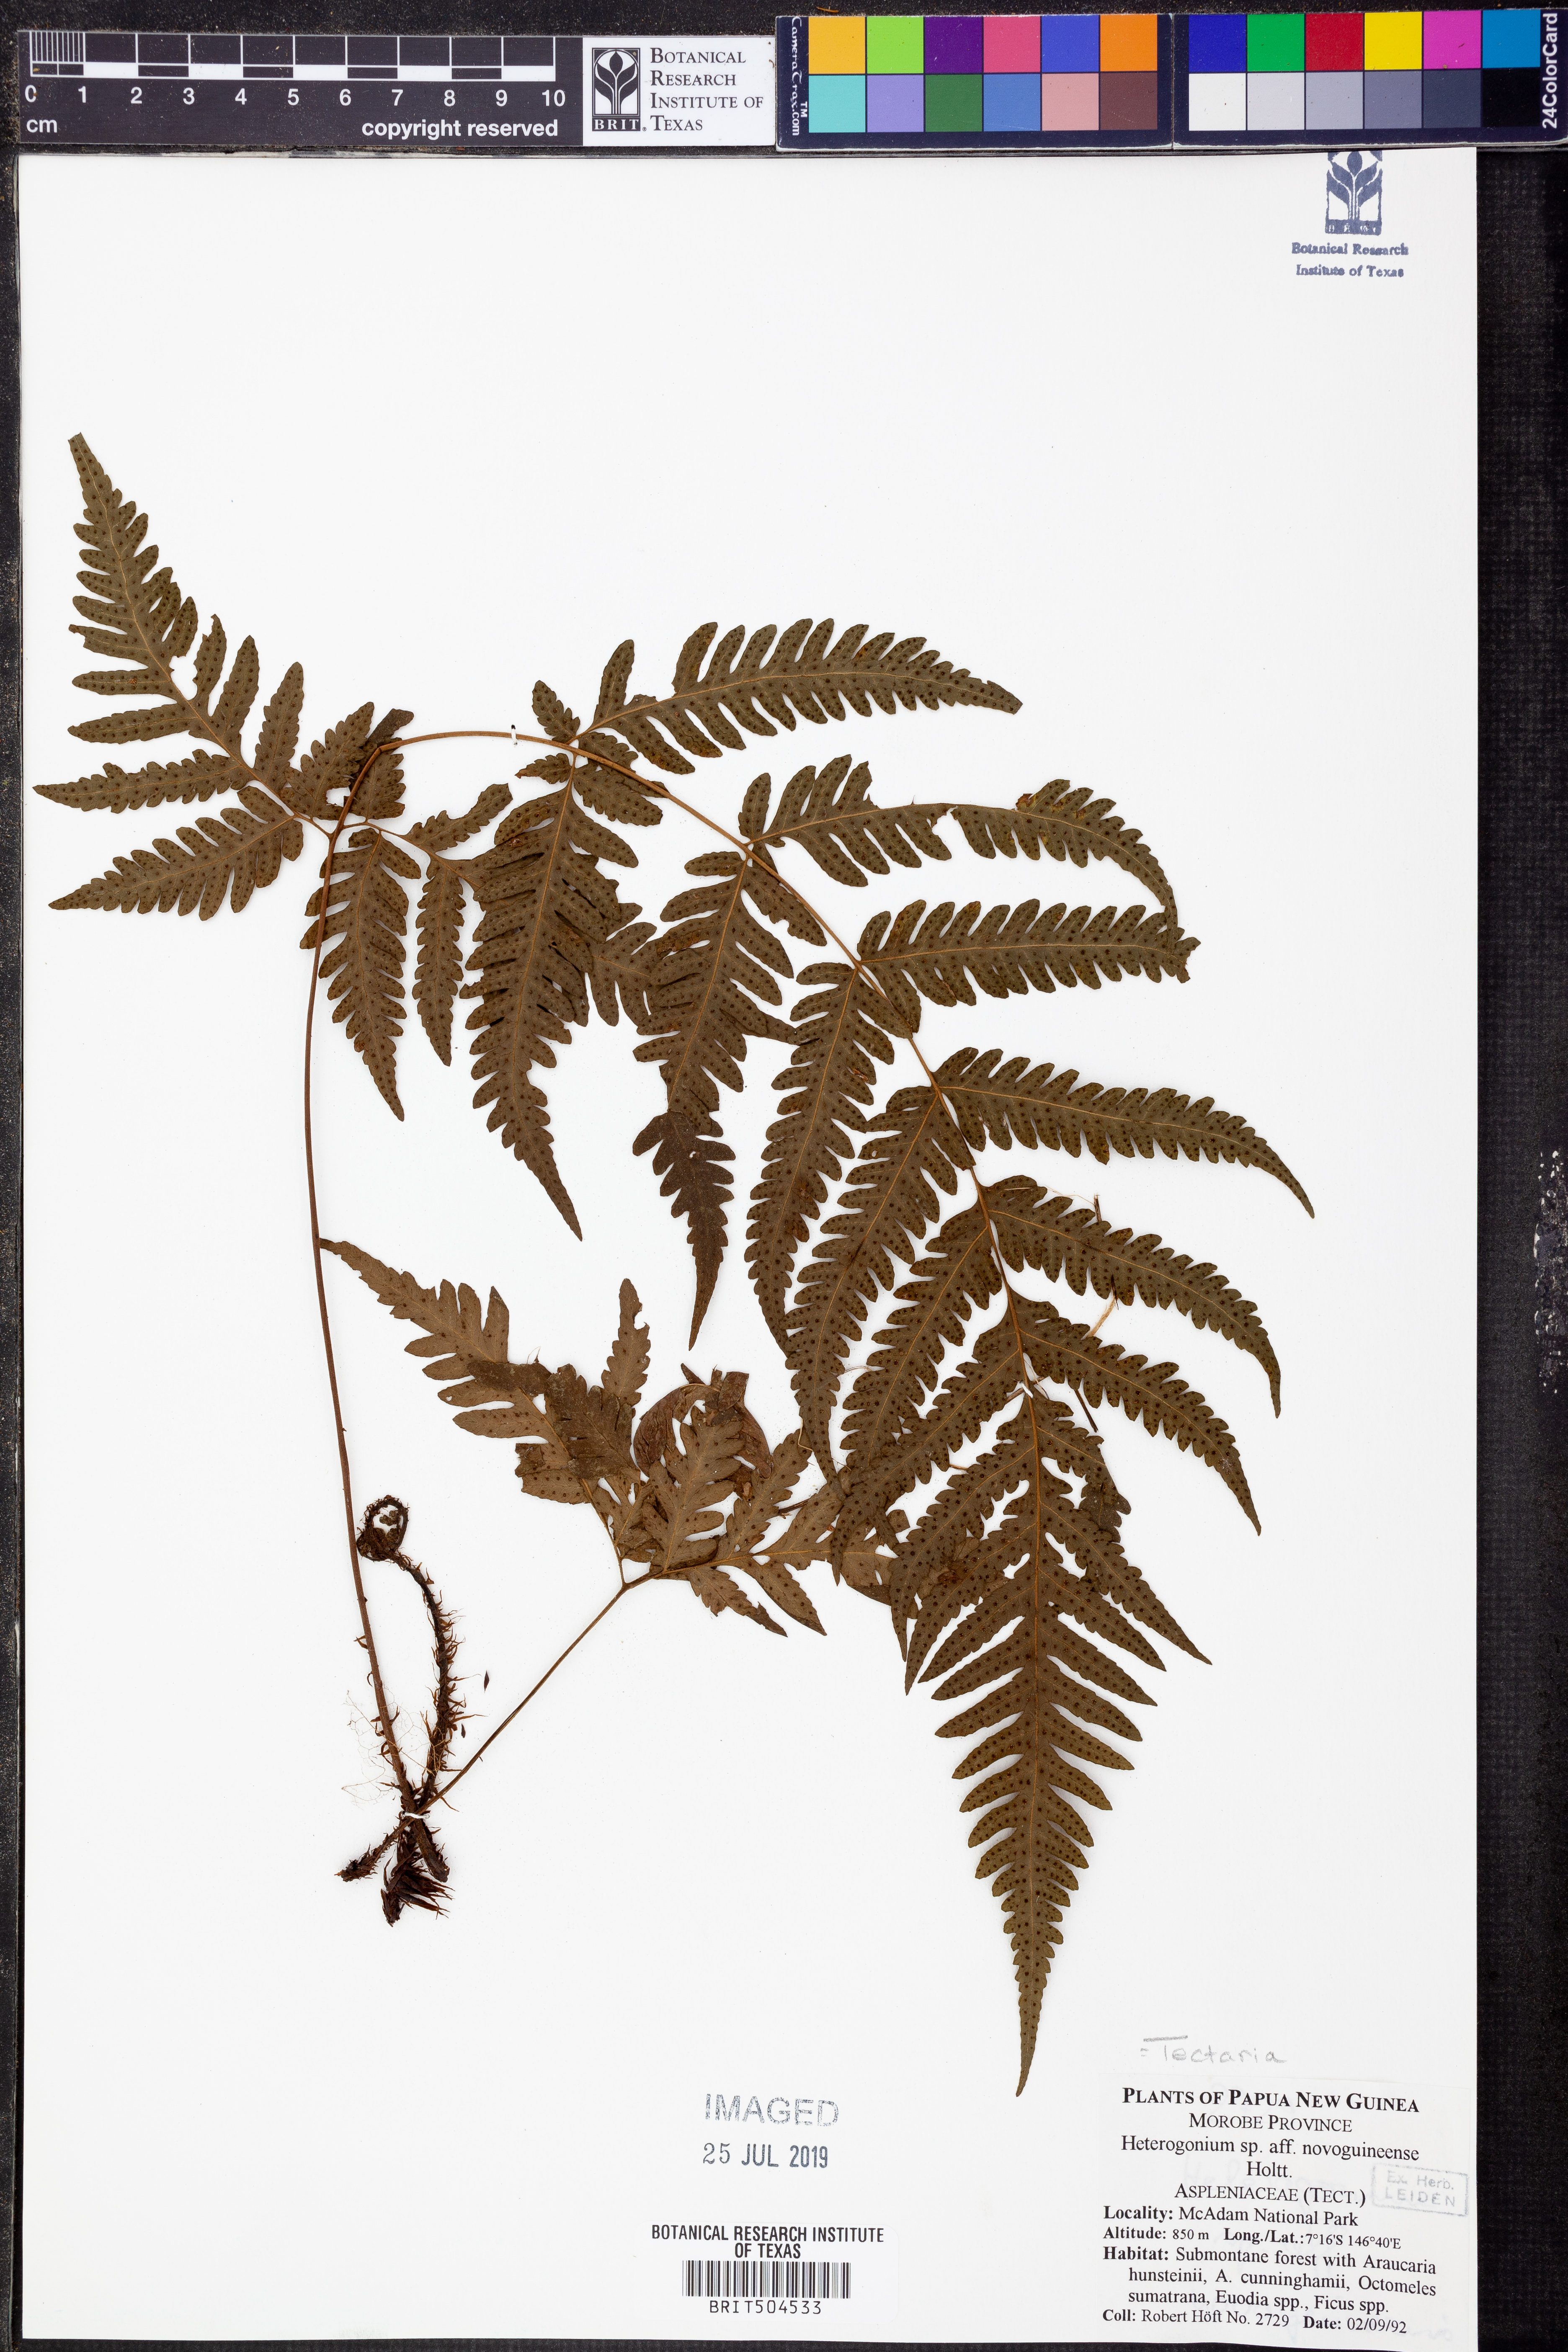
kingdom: Plantae
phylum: Tracheophyta
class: Polypodiopsida
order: Polypodiales
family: Tectariaceae
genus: Tectaria
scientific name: Tectaria novoguineensis
